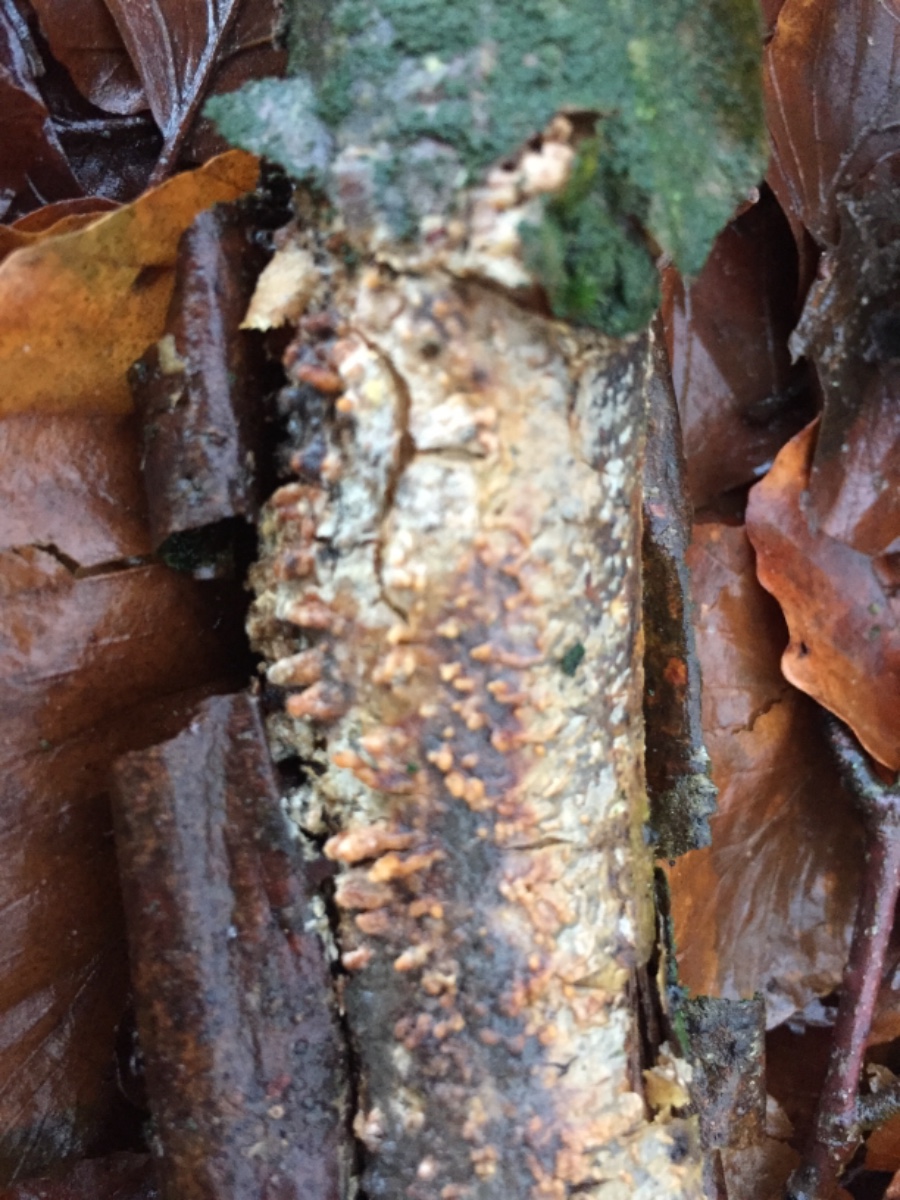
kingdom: Fungi
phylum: Basidiomycota
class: Agaricomycetes
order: Russulales
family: Peniophoraceae
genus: Peniophora
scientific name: Peniophora laeta
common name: tandet voksskind
